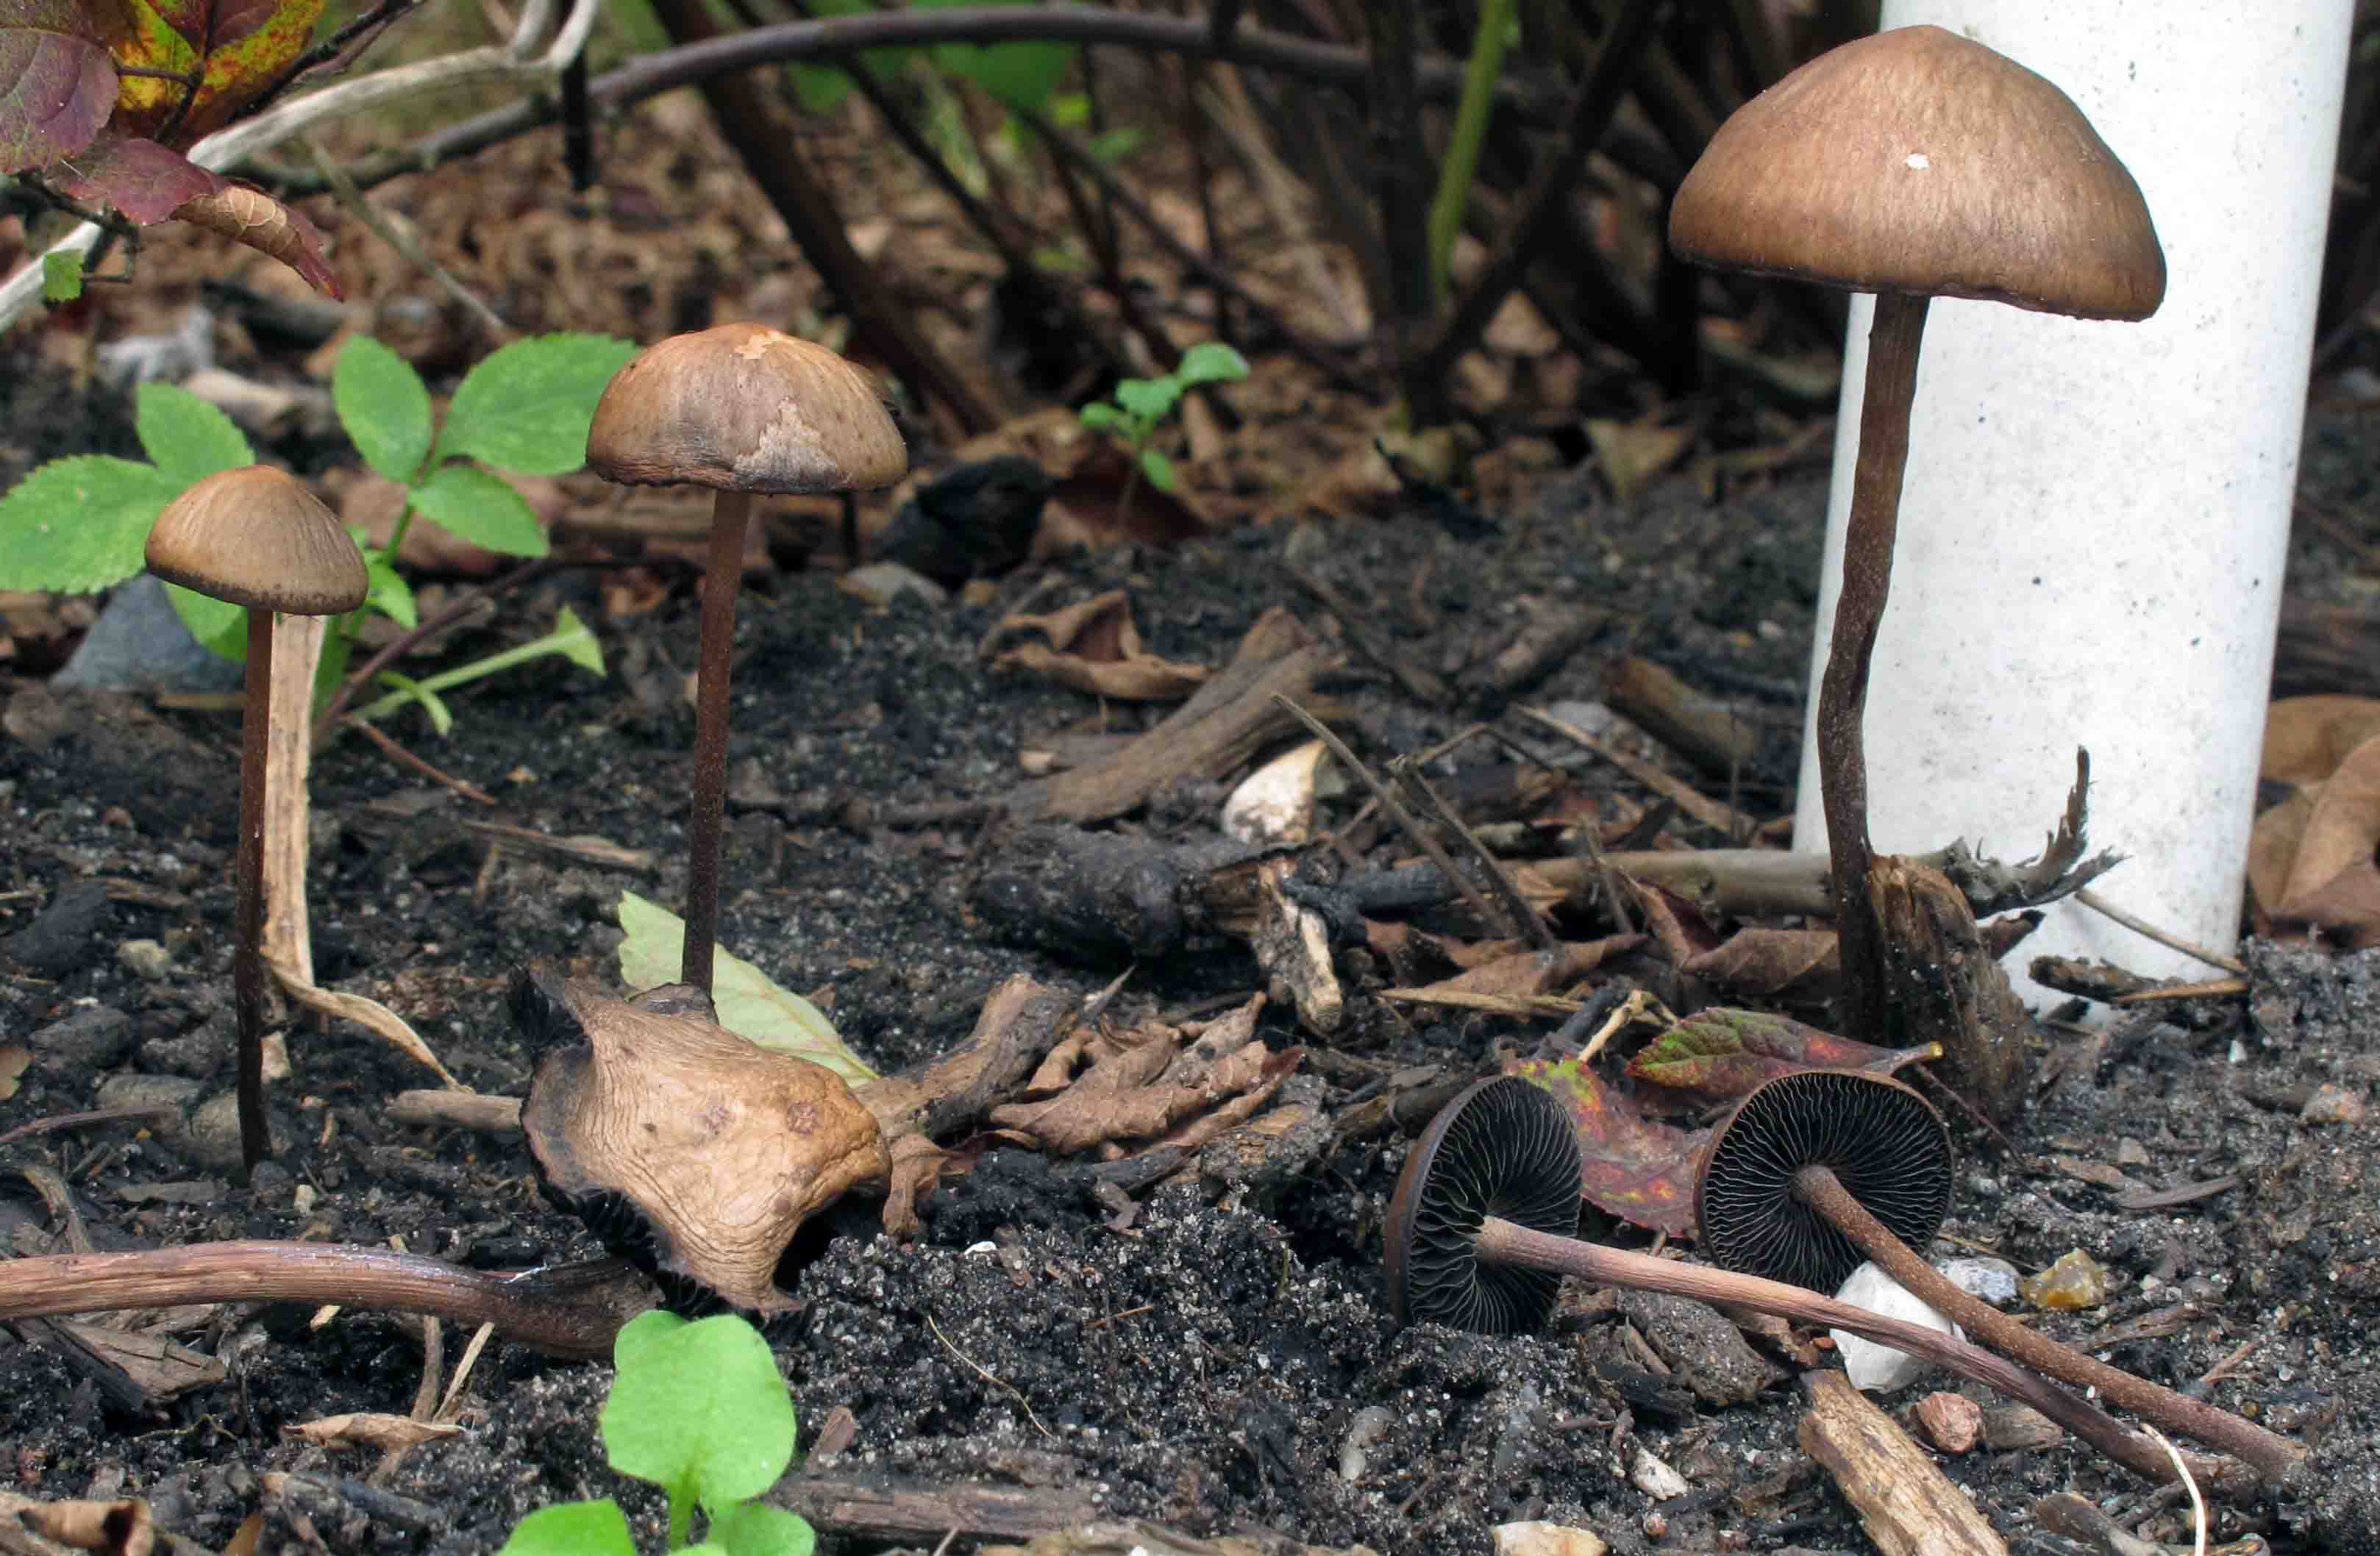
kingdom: Fungi
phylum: Basidiomycota
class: Agaricomycetes
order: Agaricales
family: Bolbitiaceae
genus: Panaeolus
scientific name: Panaeolus cinctulus
